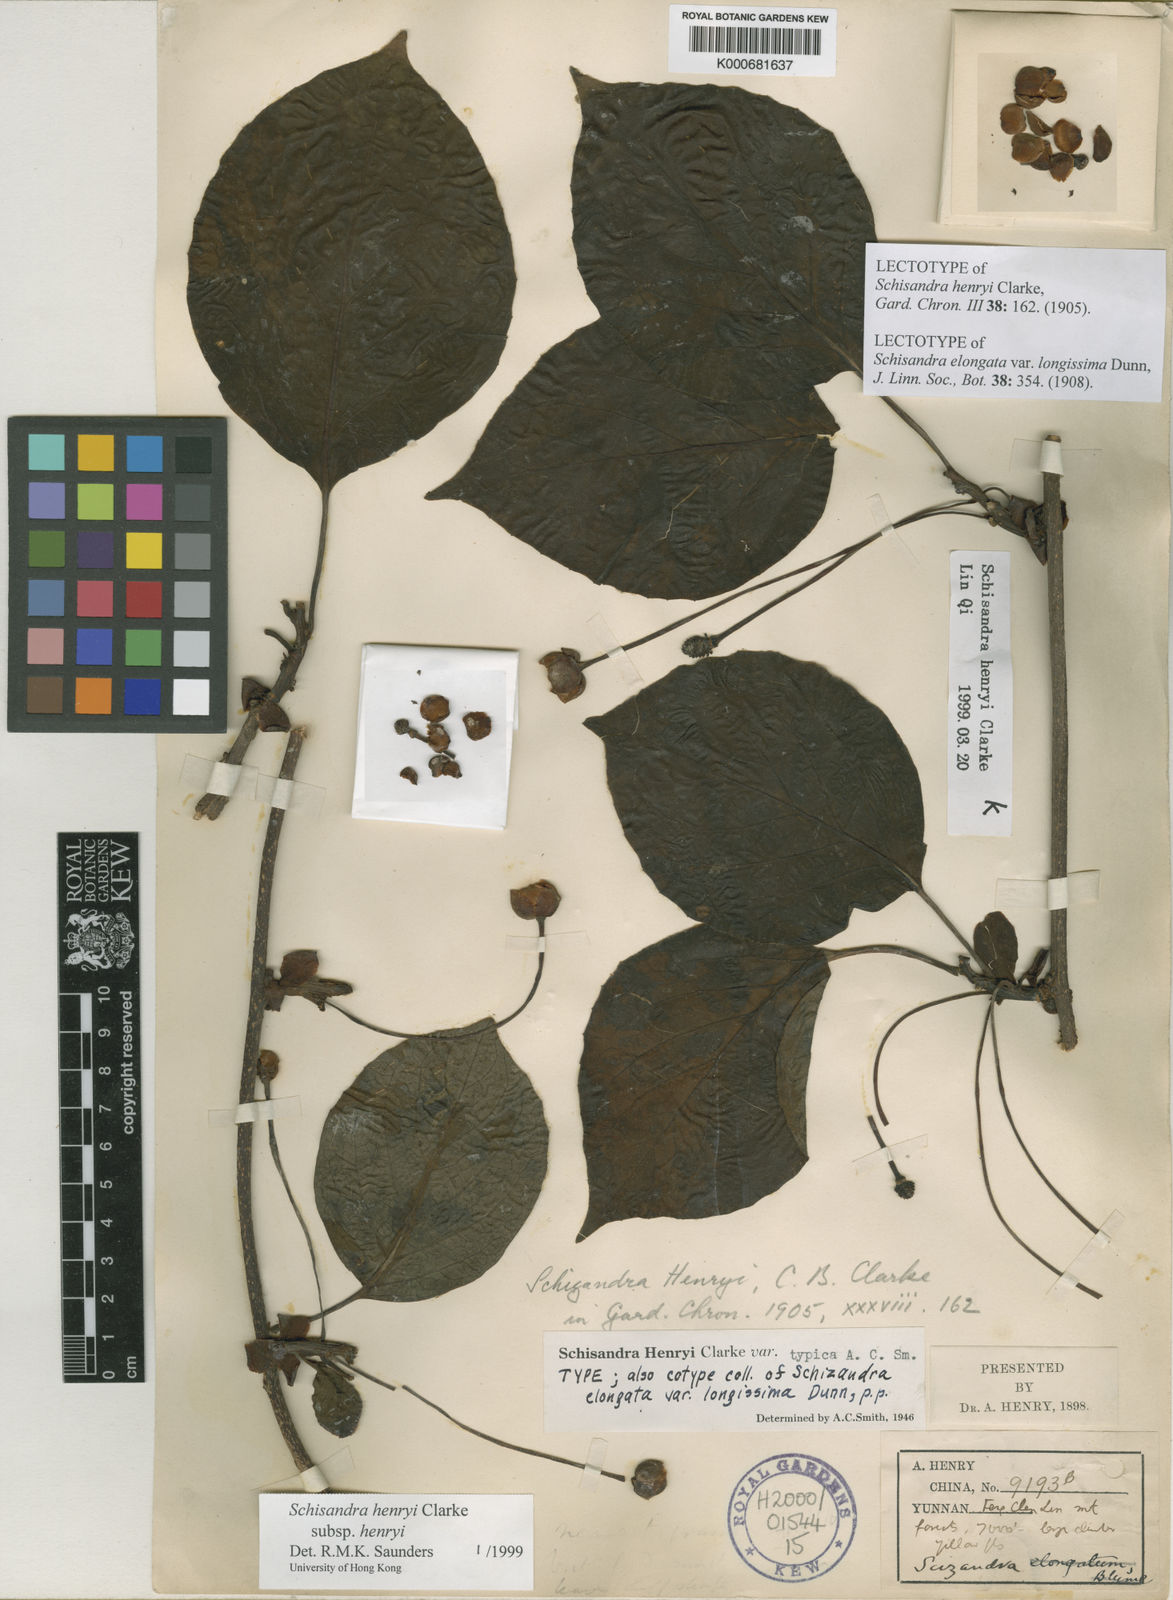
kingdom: Plantae
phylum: Tracheophyta
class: Magnoliopsida
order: Austrobaileyales
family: Schisandraceae
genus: Schisandra
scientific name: Schisandra henryi
